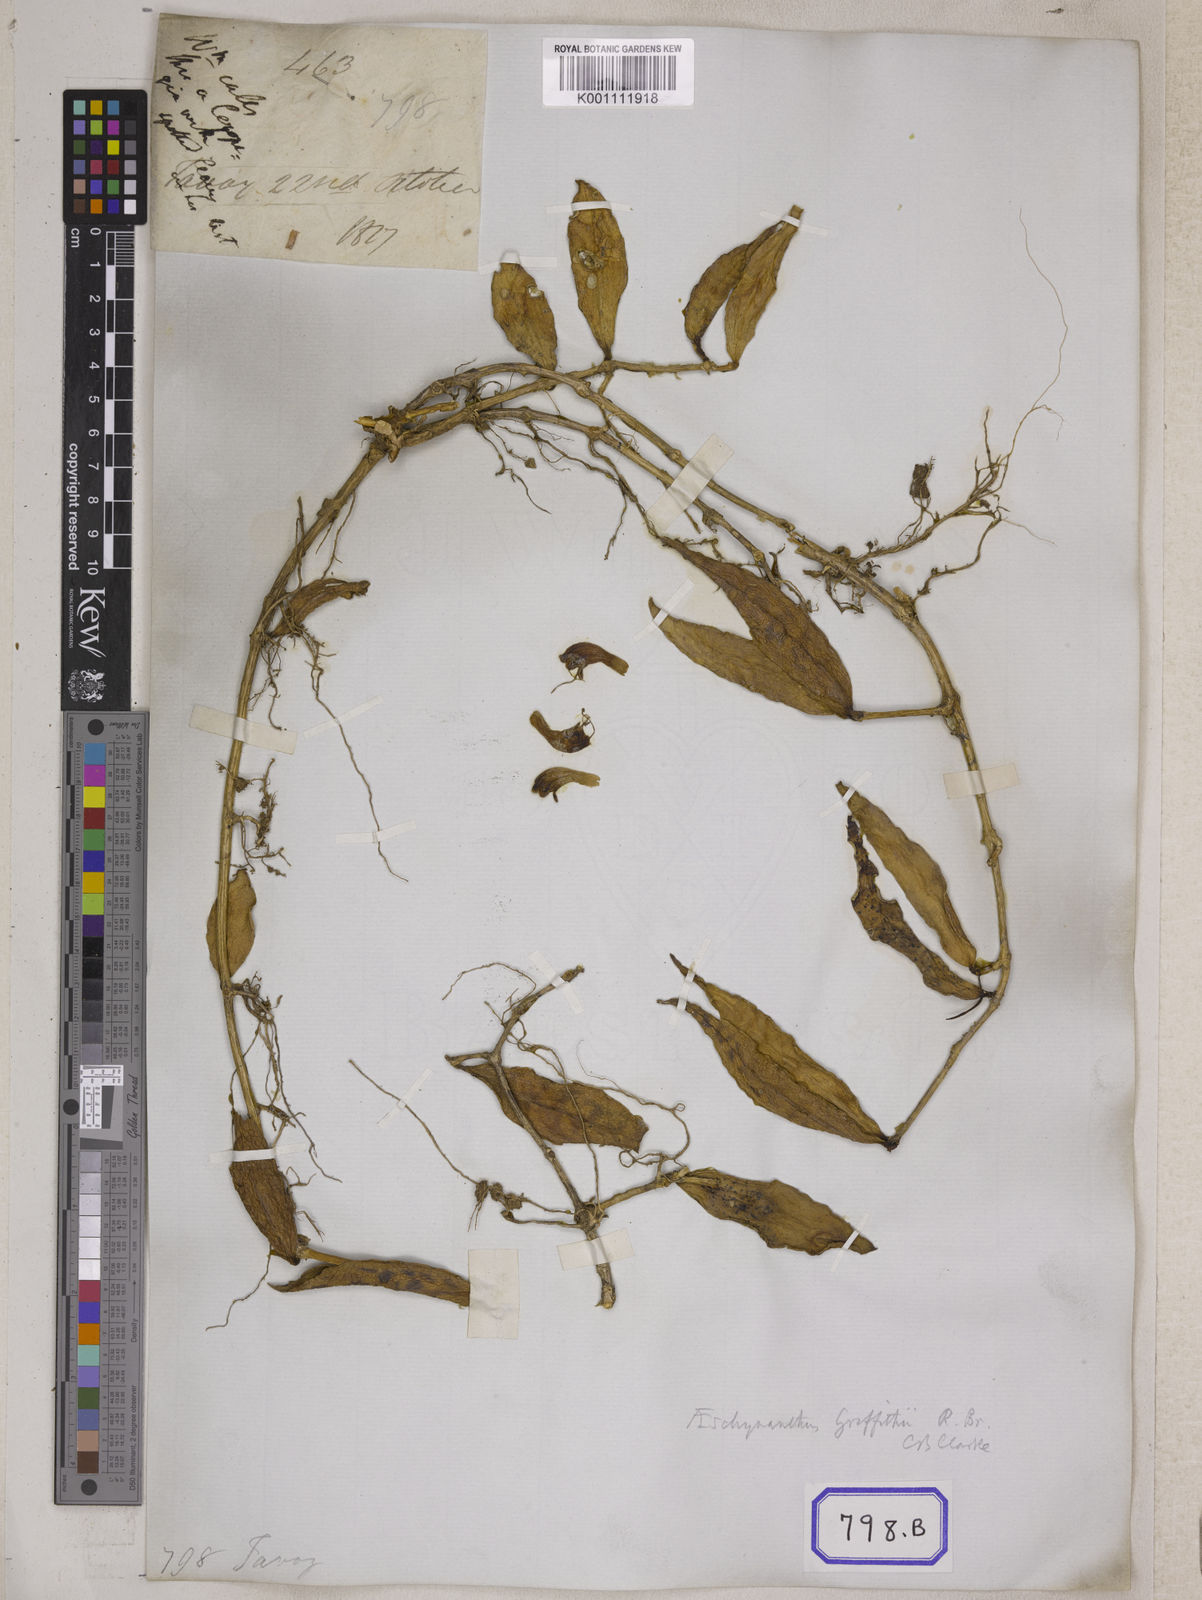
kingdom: Plantae
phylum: Tracheophyta
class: Magnoliopsida
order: Lamiales
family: Gesneriaceae
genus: Aeschynanthus
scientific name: Aeschynanthus radicans
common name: Lipstickplant
